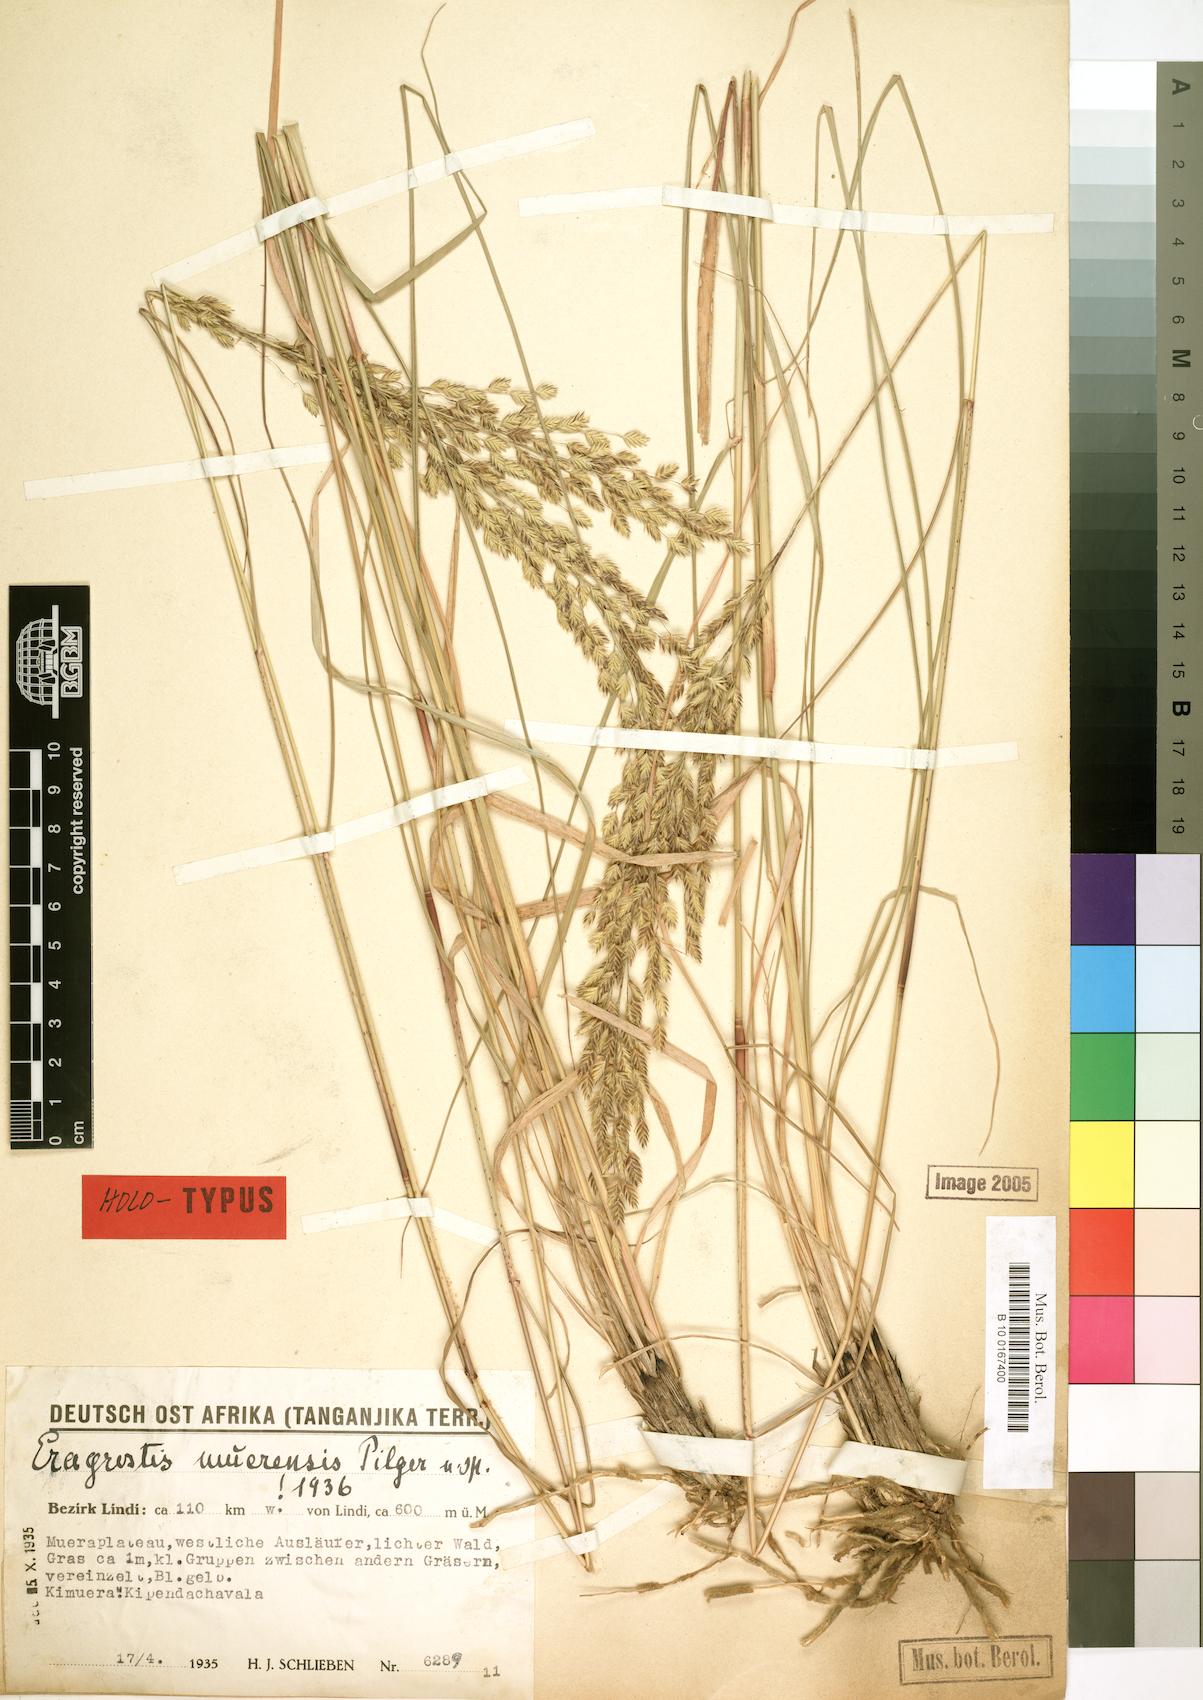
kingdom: Plantae
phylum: Tracheophyta
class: Liliopsida
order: Poales
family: Poaceae
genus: Eragrostis
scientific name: Eragrostis muerensis
